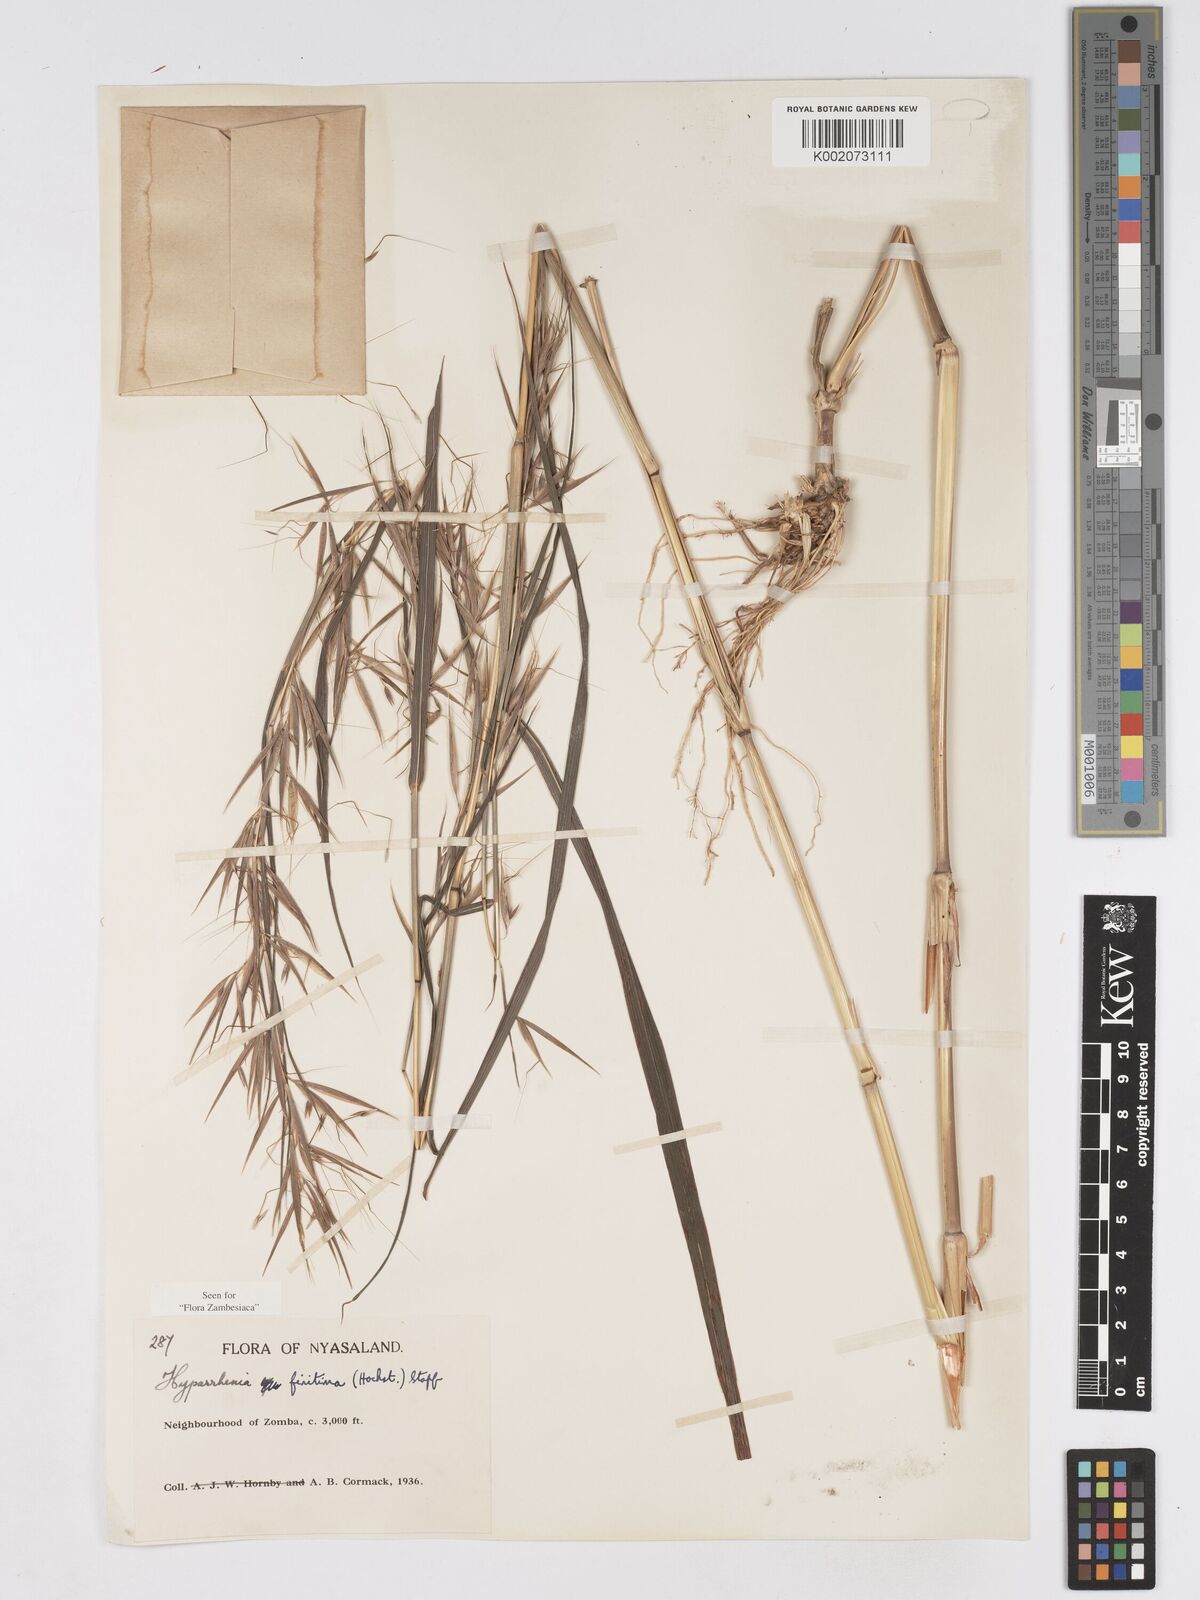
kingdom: Plantae
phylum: Tracheophyta
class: Liliopsida
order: Poales
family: Poaceae
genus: Hyparrhenia
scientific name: Hyparrhenia finitima
